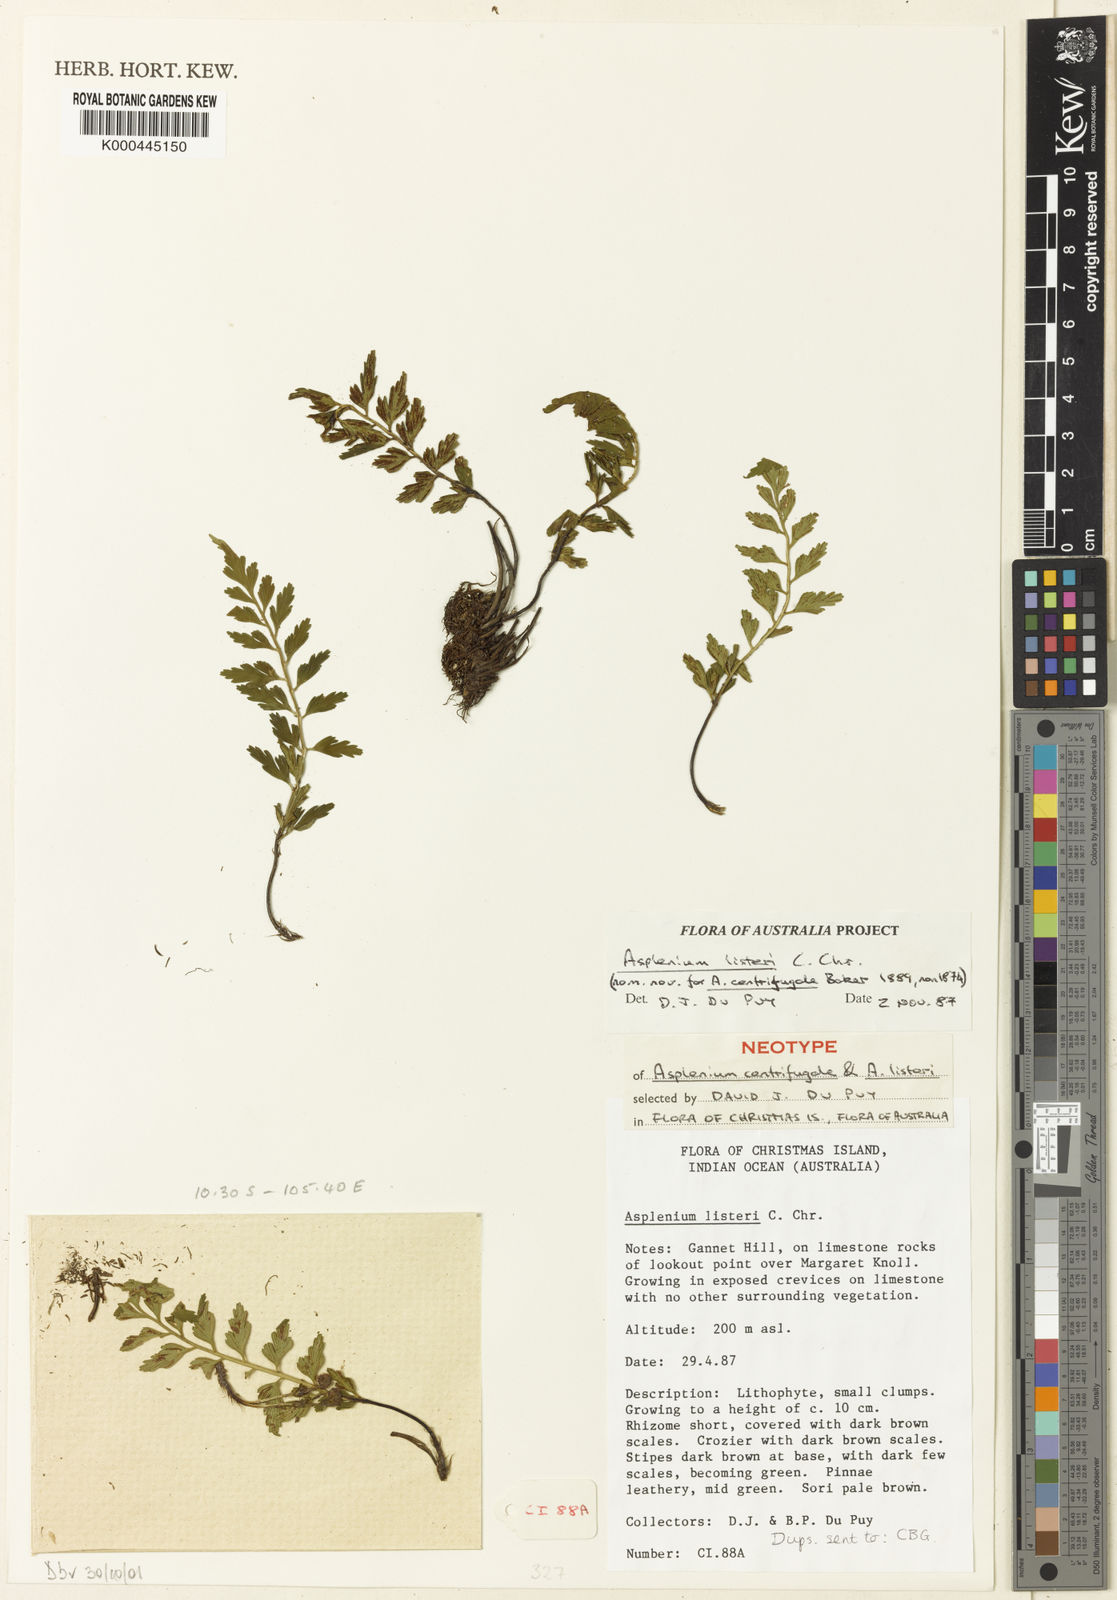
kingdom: Plantae
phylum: Tracheophyta
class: Polypodiopsida
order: Polypodiales
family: Aspleniaceae
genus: Asplenium
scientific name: Asplenium listeri
